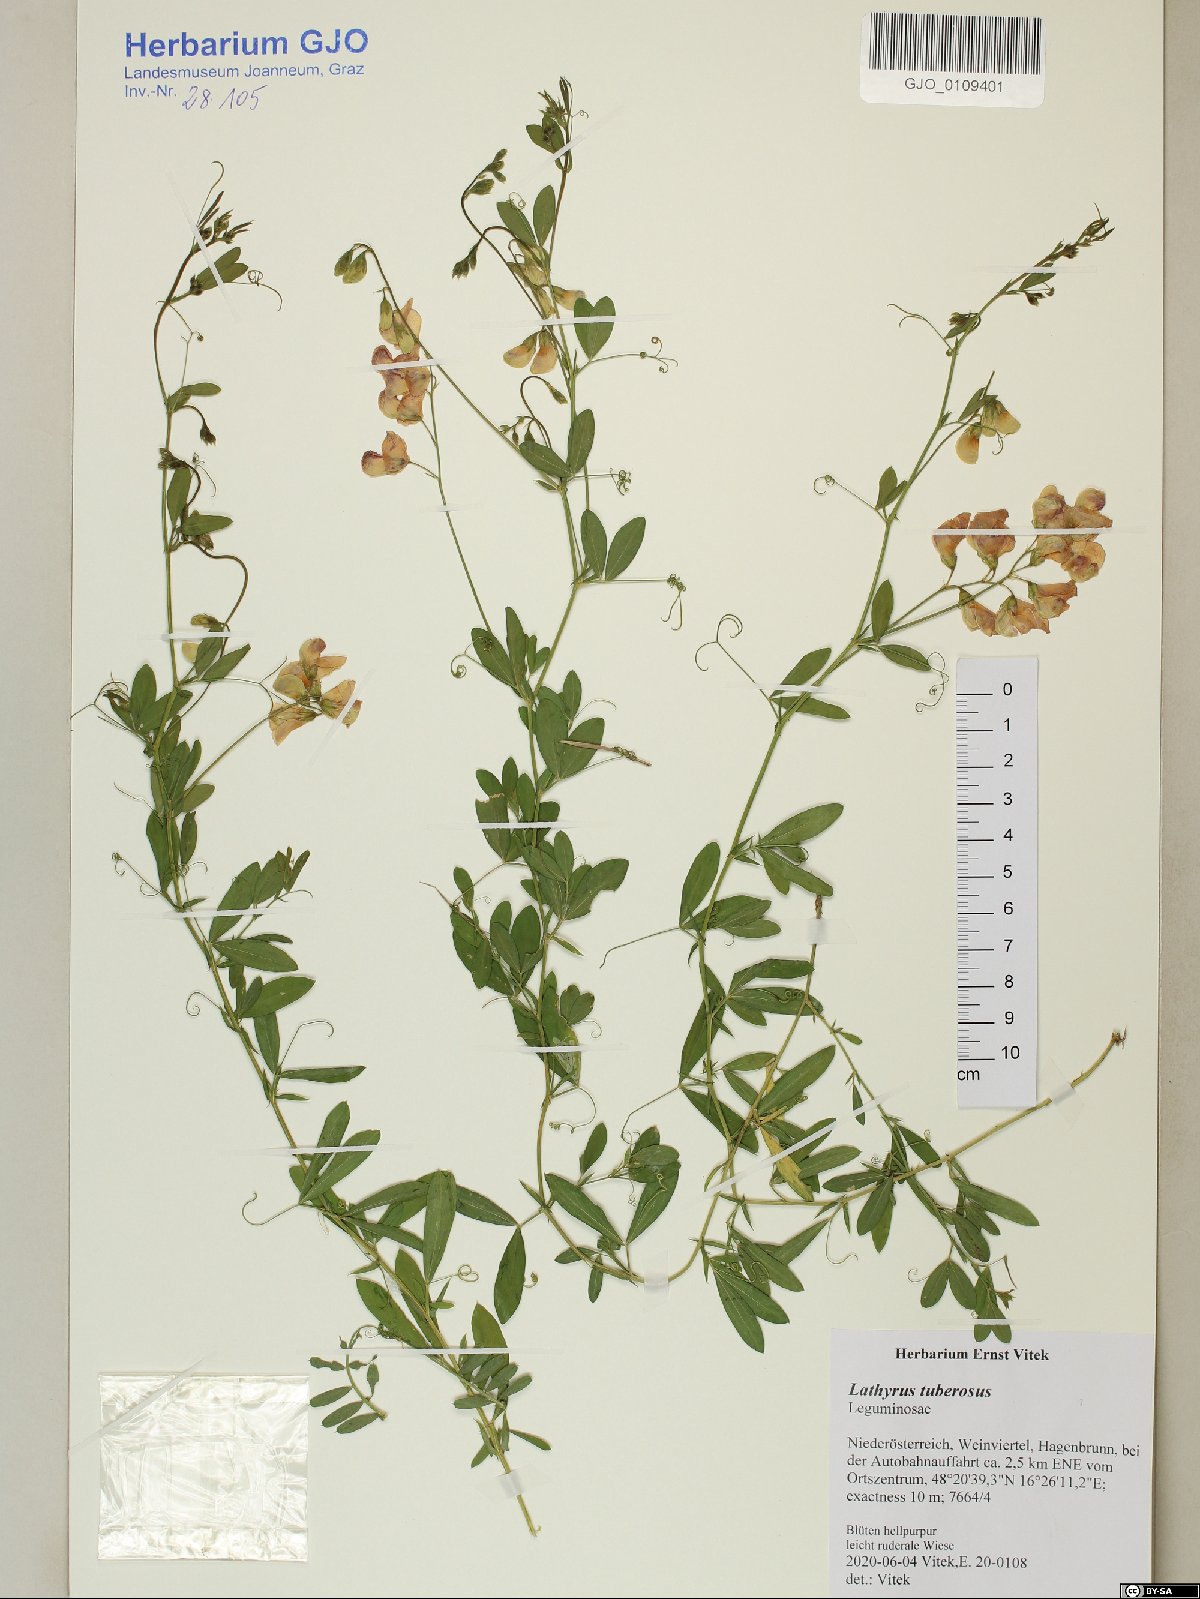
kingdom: Plantae
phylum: Tracheophyta
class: Magnoliopsida
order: Fabales
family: Fabaceae
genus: Lathyrus
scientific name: Lathyrus tuberosus
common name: Tuberous pea
